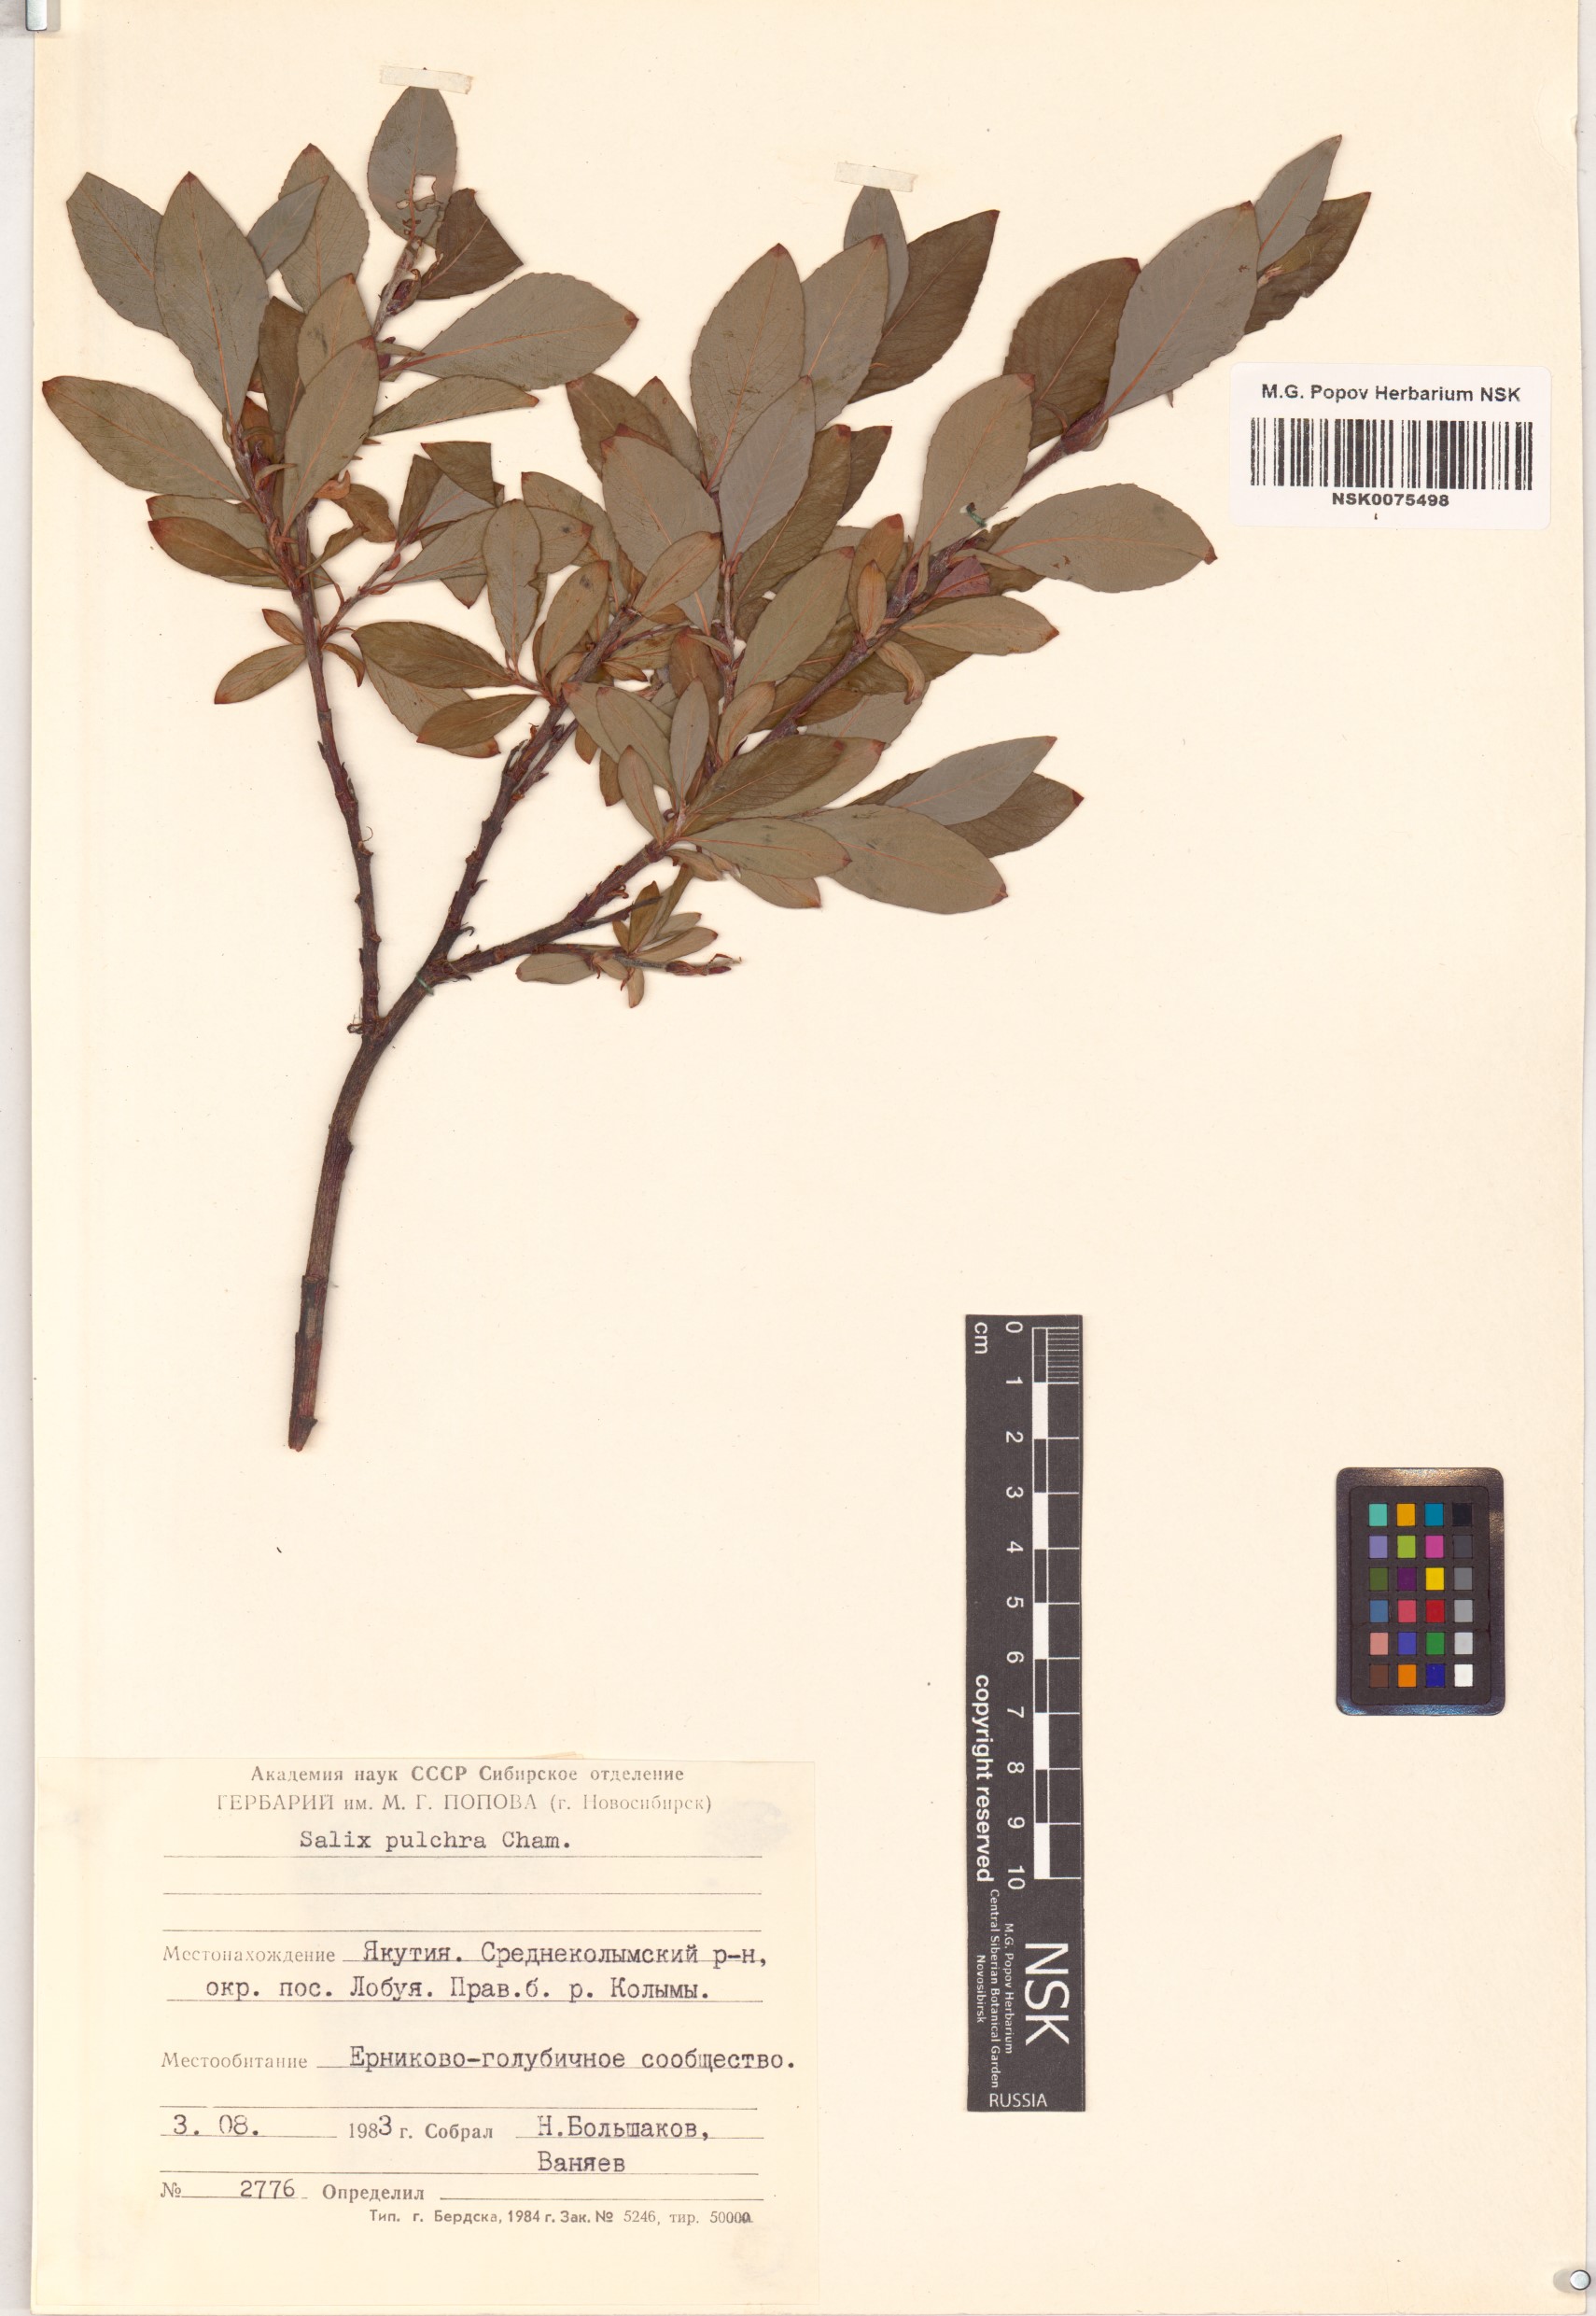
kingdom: Plantae
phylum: Tracheophyta
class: Magnoliopsida
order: Malpighiales
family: Salicaceae
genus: Salix
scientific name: Salix pulchra
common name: Diamond-leaved willow
